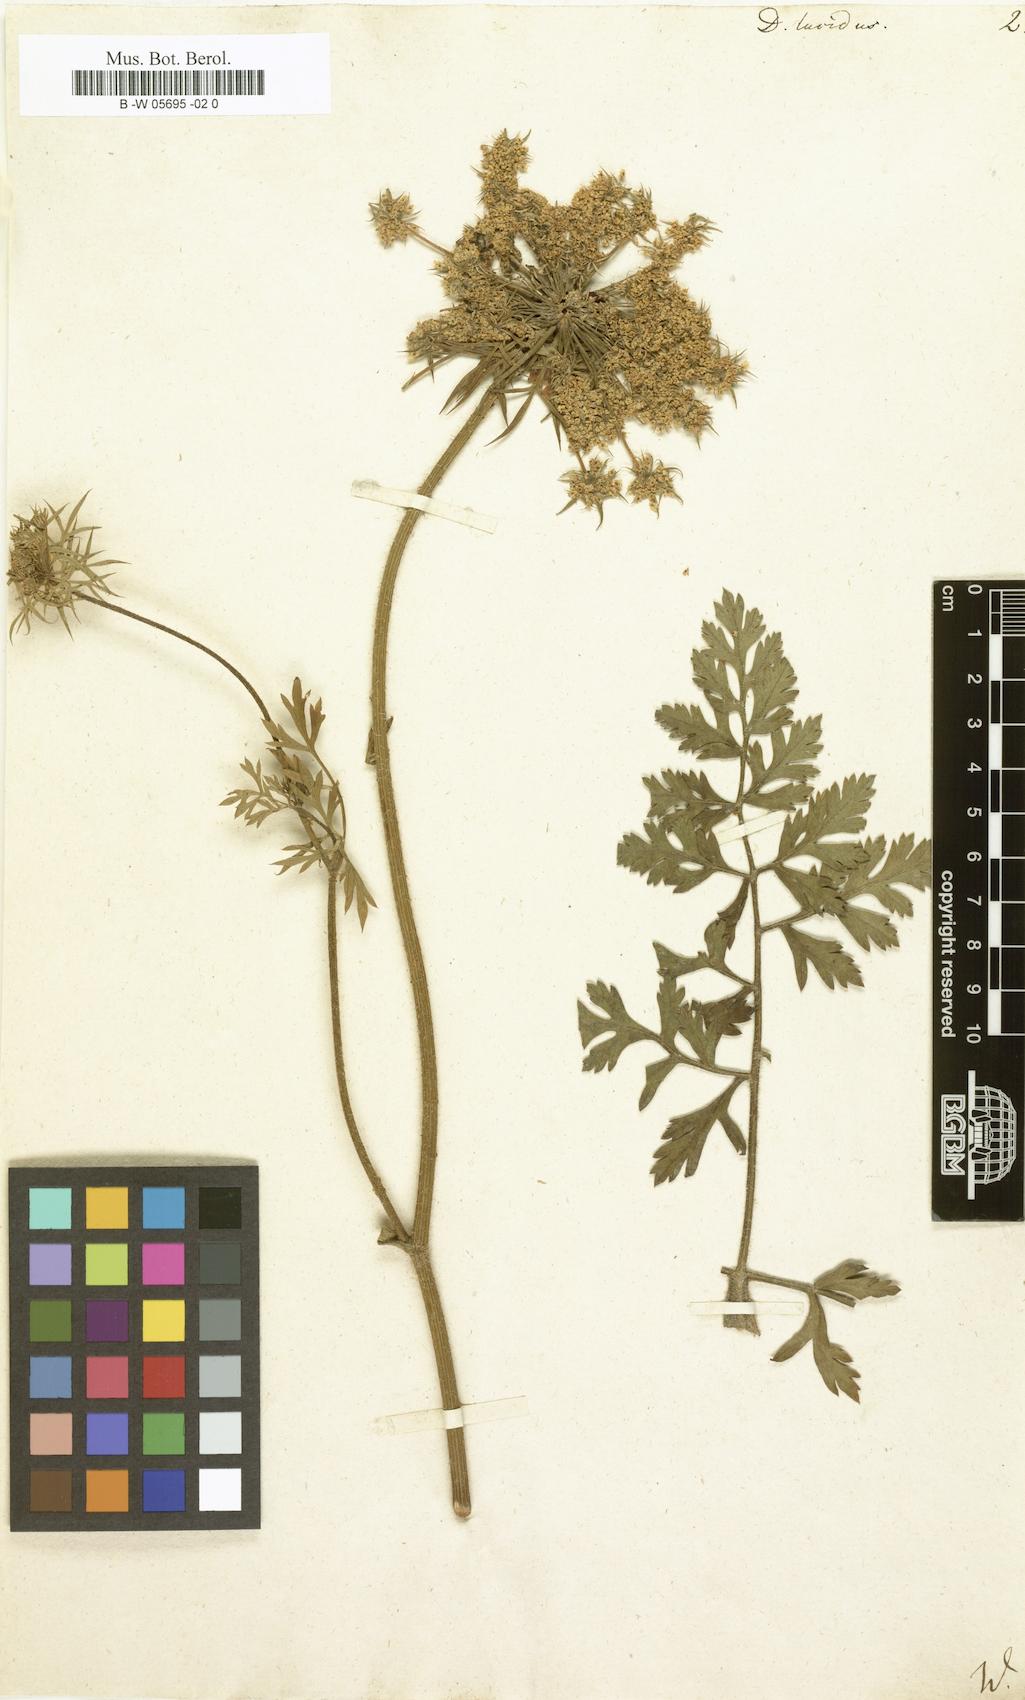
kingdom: Plantae
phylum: Tracheophyta
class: Magnoliopsida
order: Apiales
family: Apiaceae
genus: Daucus
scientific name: Daucus carota
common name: Wild carrot
